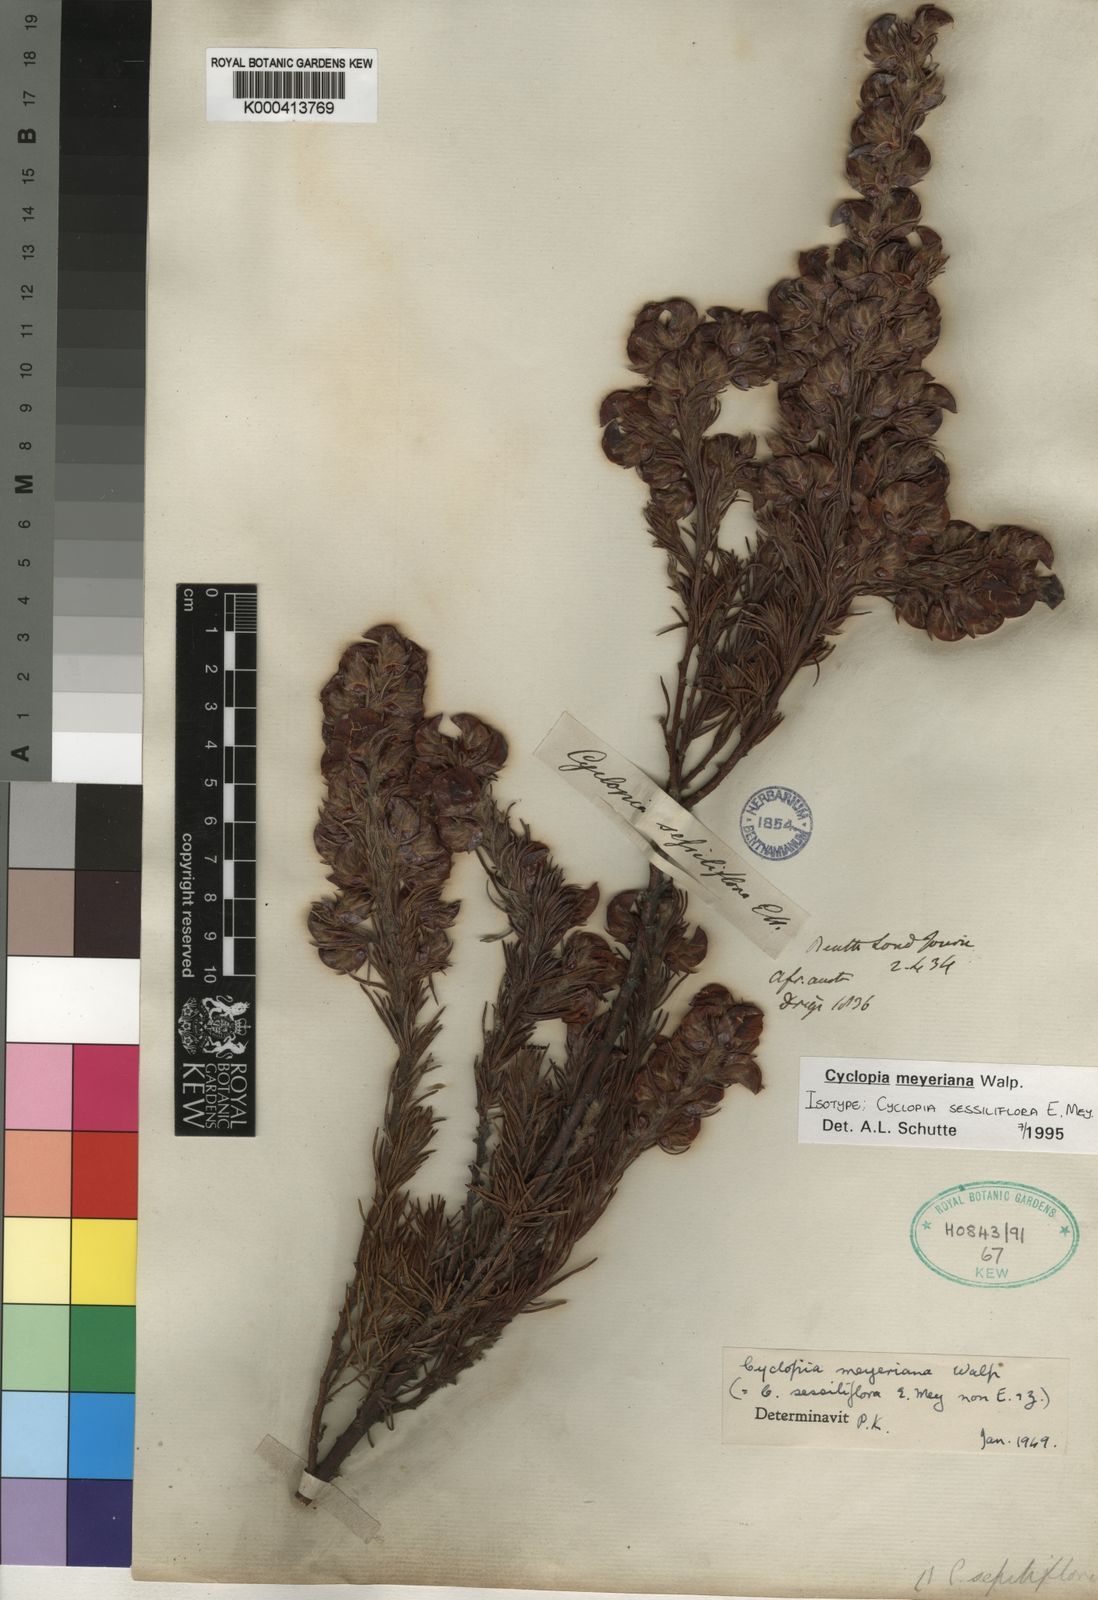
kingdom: Plantae
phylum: Tracheophyta
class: Magnoliopsida
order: Fabales
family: Fabaceae
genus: Cyclopia
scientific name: Cyclopia meyeriana
